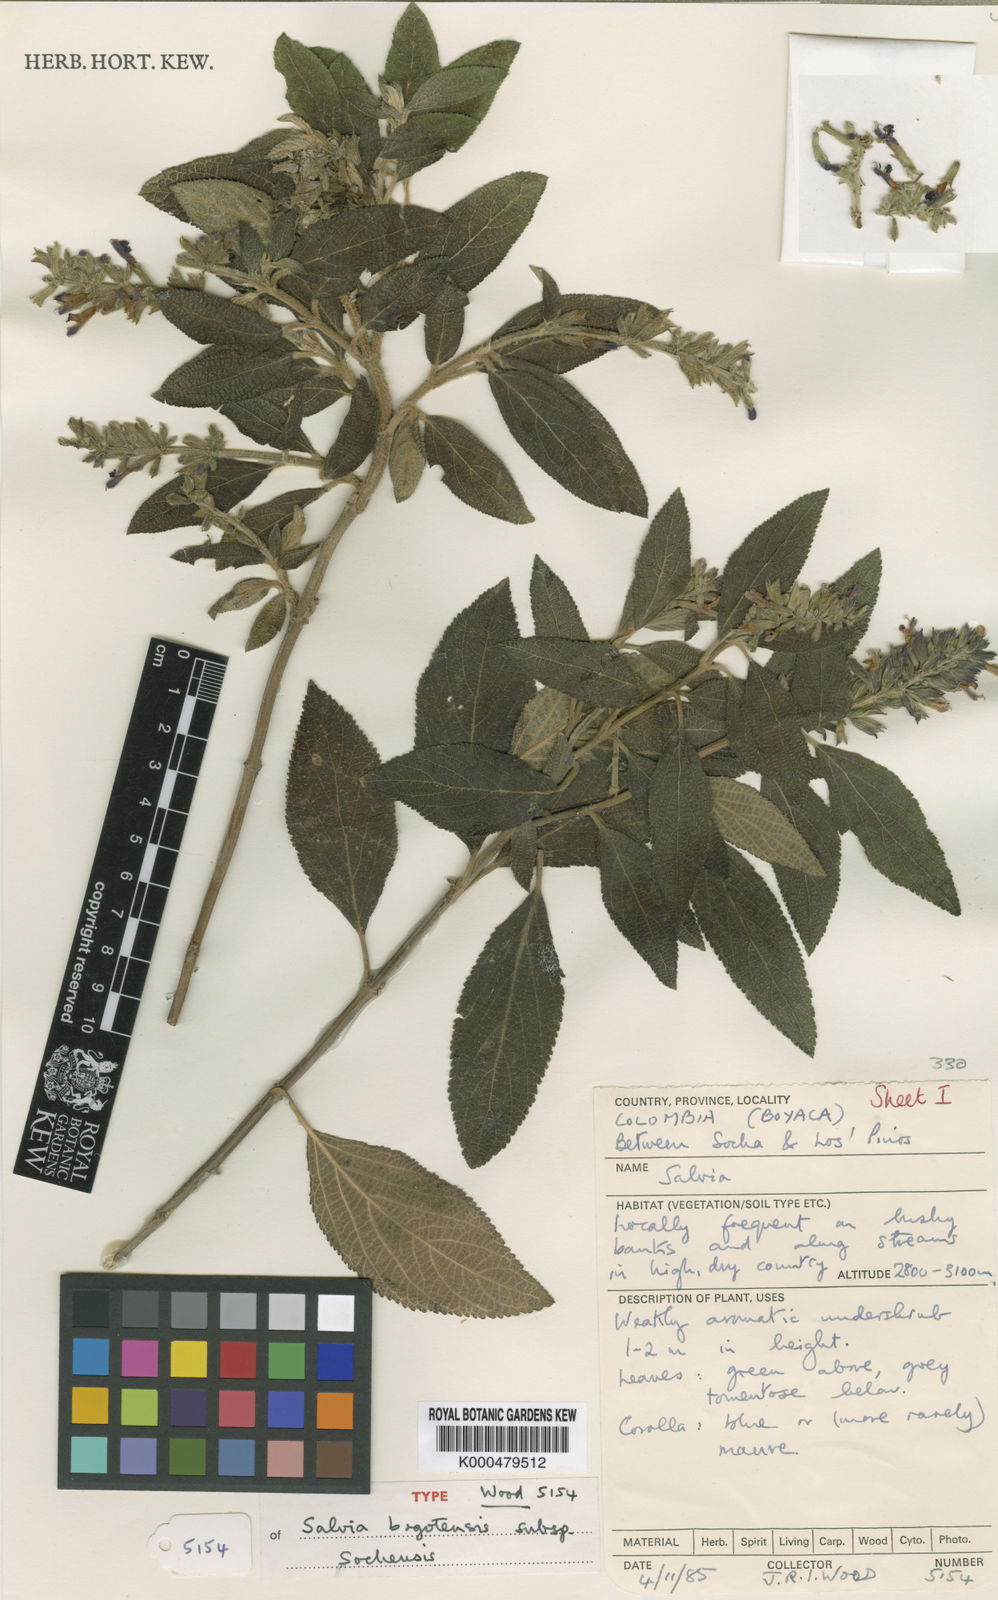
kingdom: Plantae
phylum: Tracheophyta
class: Magnoliopsida
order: Lamiales
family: Lamiaceae
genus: Salvia
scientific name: Salvia bogotensis
